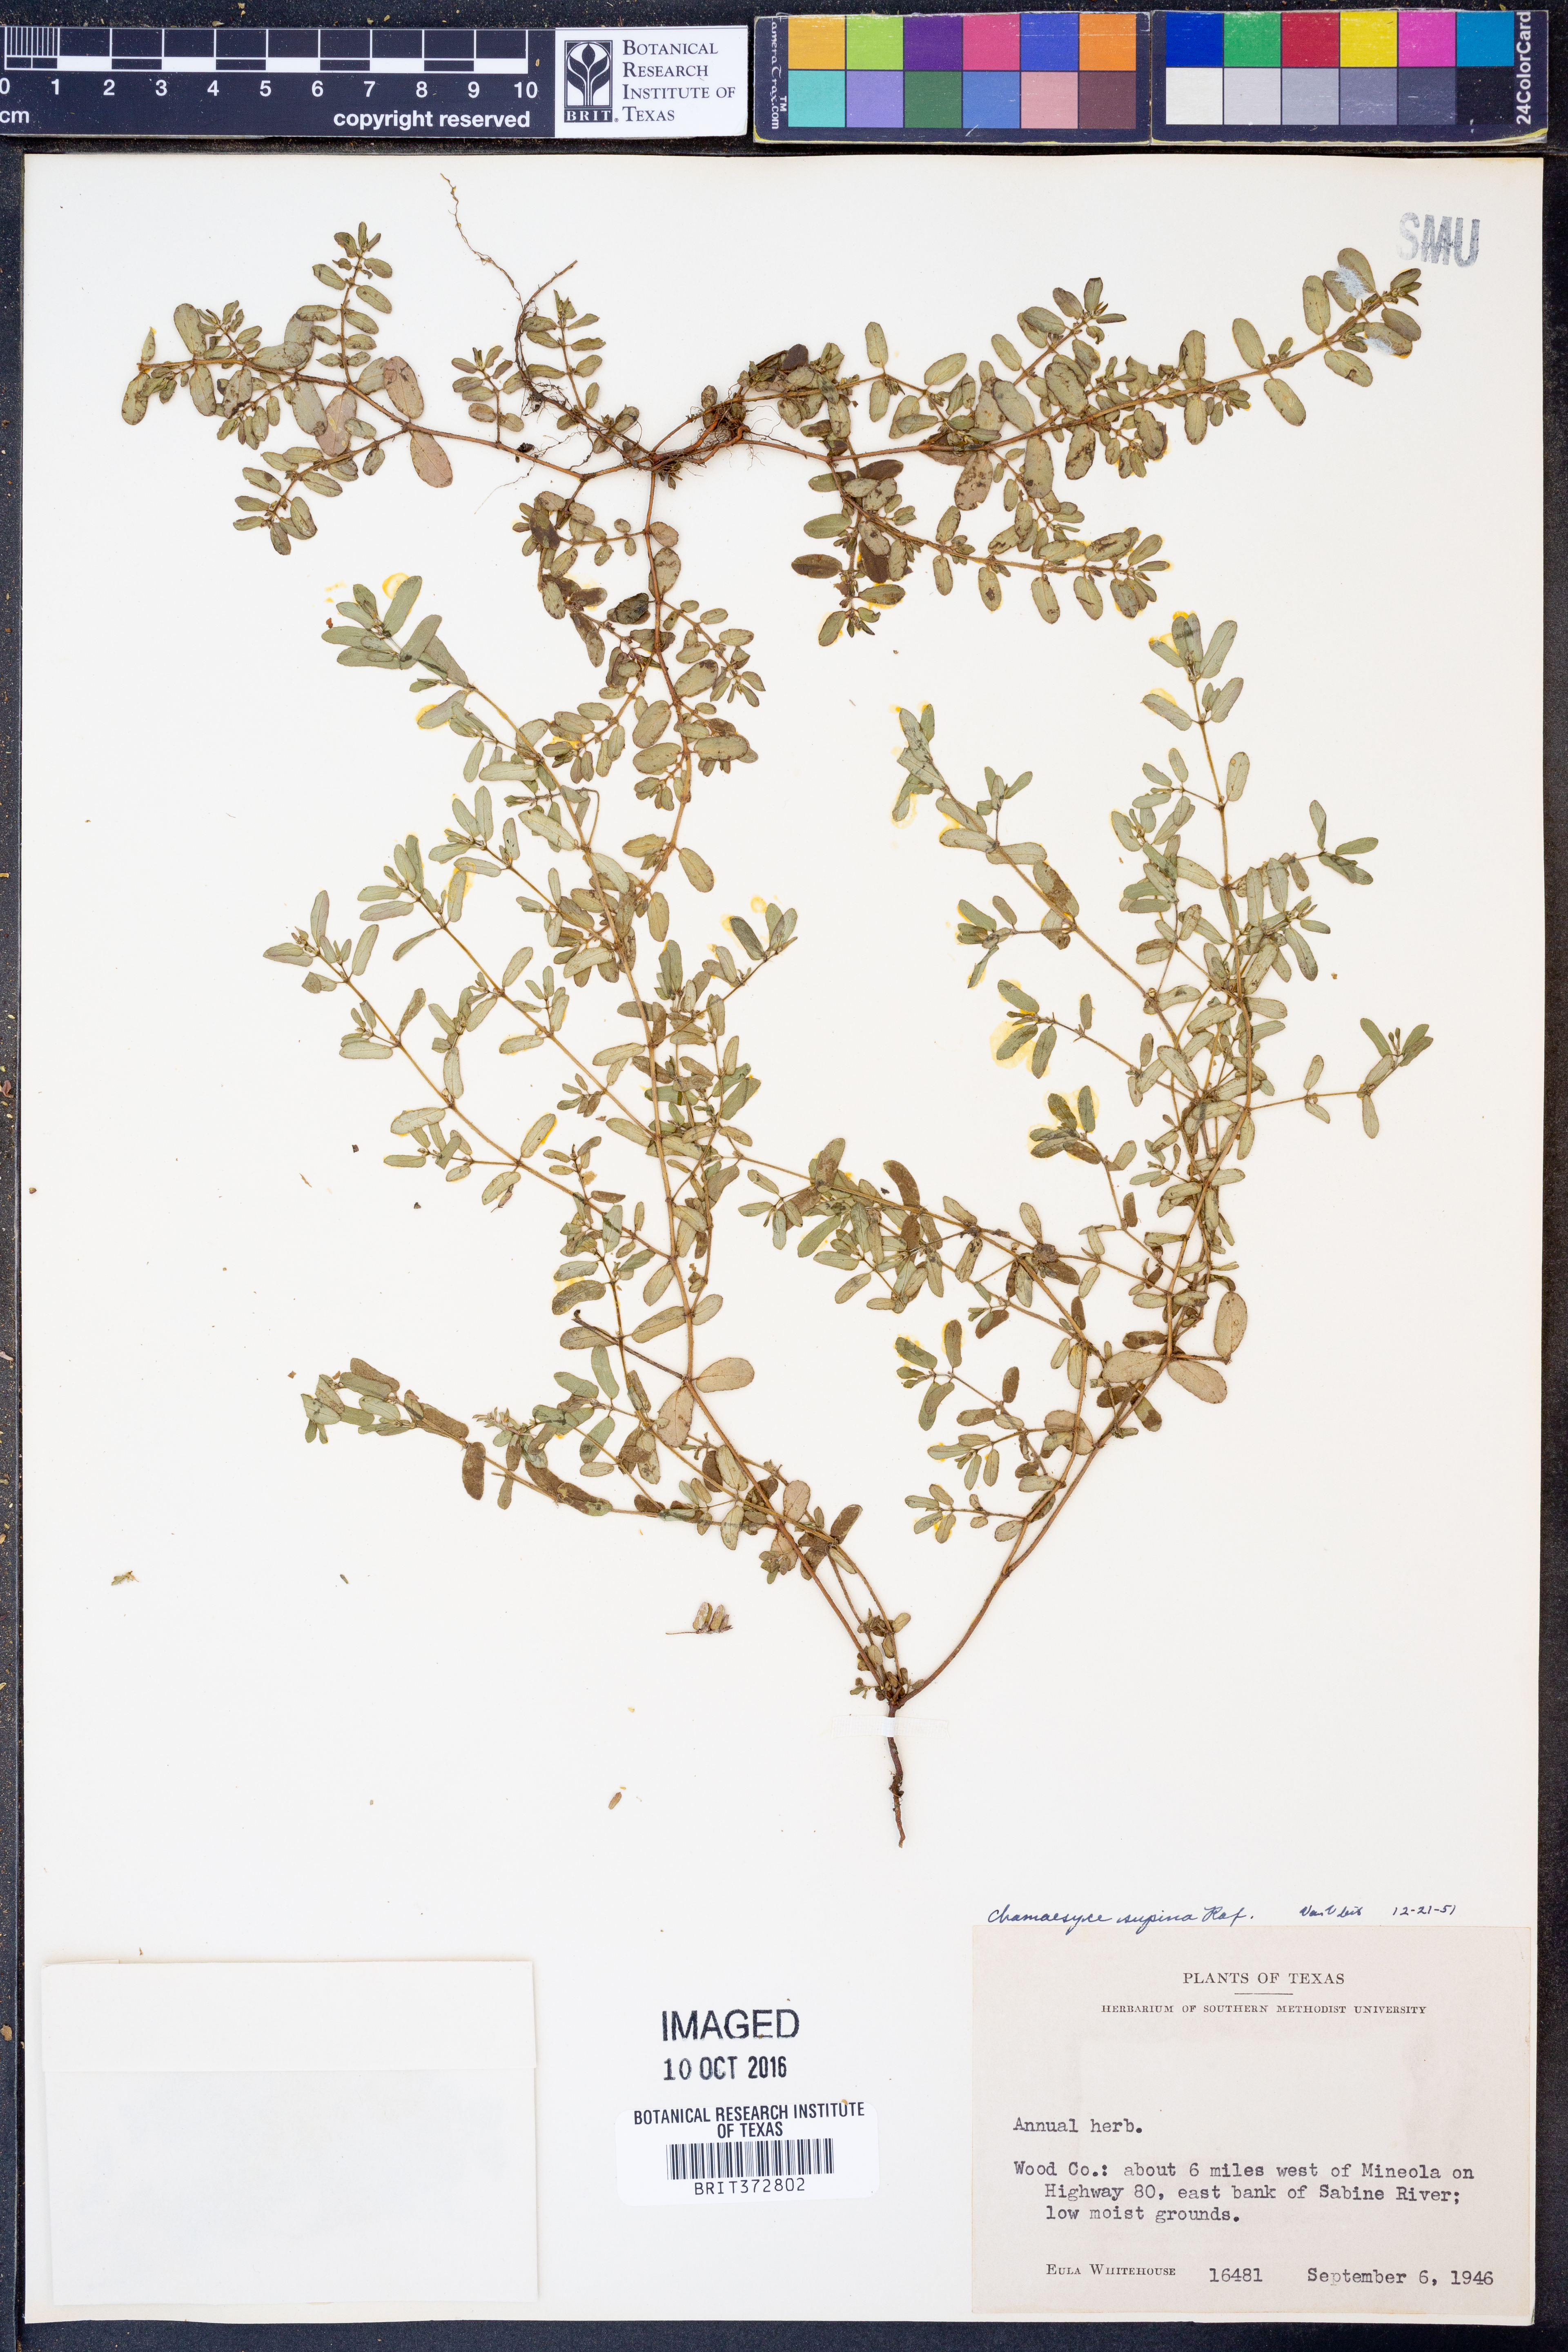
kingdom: Plantae
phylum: Tracheophyta
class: Magnoliopsida
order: Malpighiales
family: Euphorbiaceae
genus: Euphorbia
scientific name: Euphorbia maculata
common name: Spotted spurge
